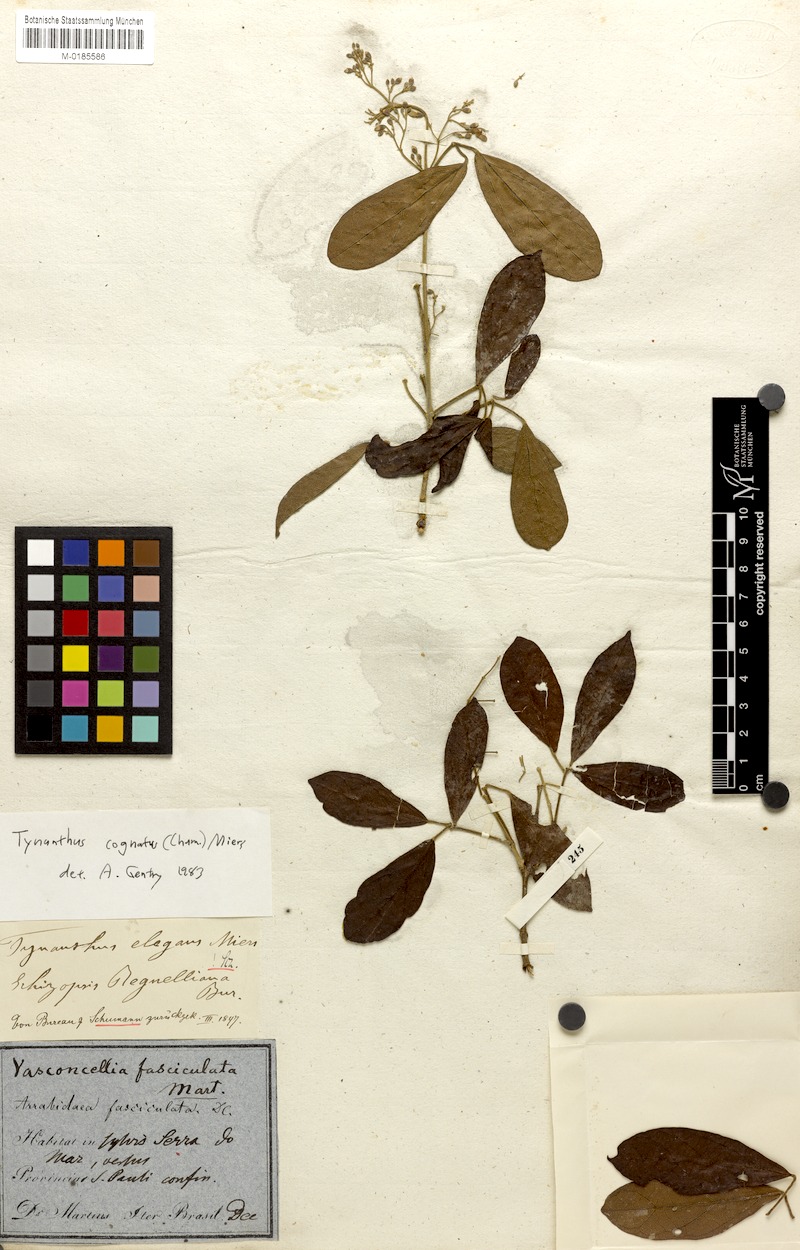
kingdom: Plantae
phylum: Tracheophyta
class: Magnoliopsida
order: Lamiales
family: Bignoniaceae
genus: Tynanthus
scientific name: Tynanthus cognatus
